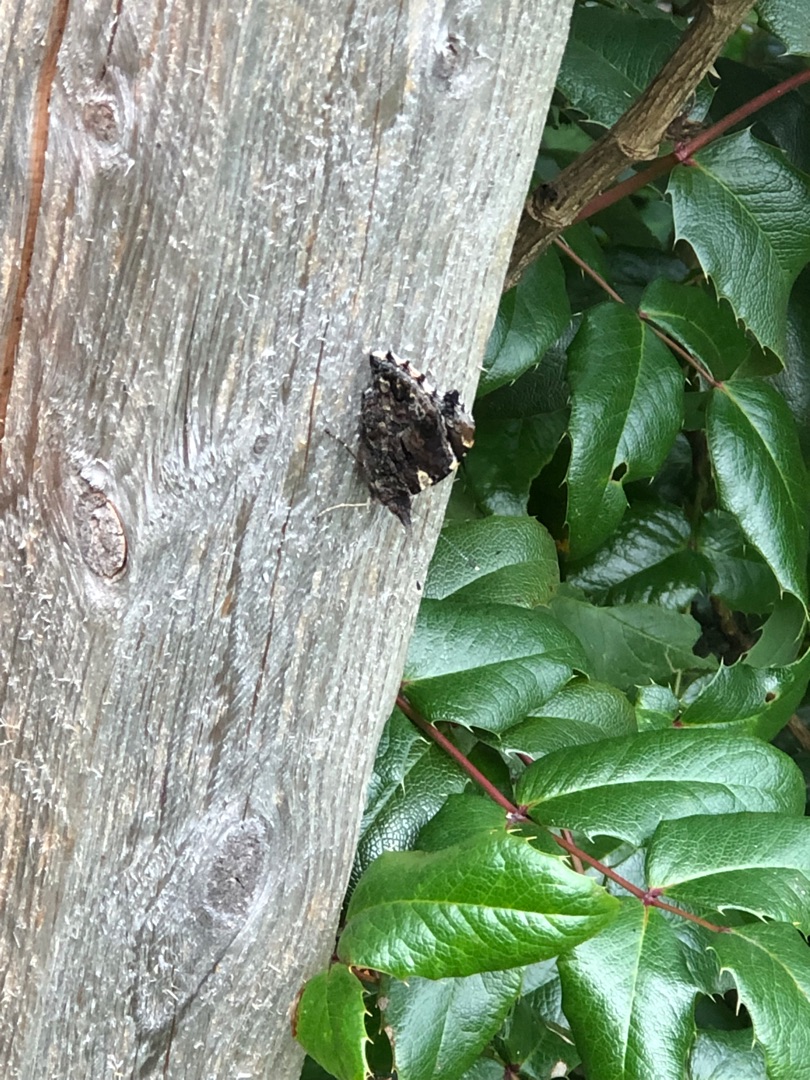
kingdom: Animalia
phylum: Arthropoda
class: Insecta
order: Lepidoptera
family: Nymphalidae
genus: Vanessa
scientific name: Vanessa atalanta
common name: Admiral
